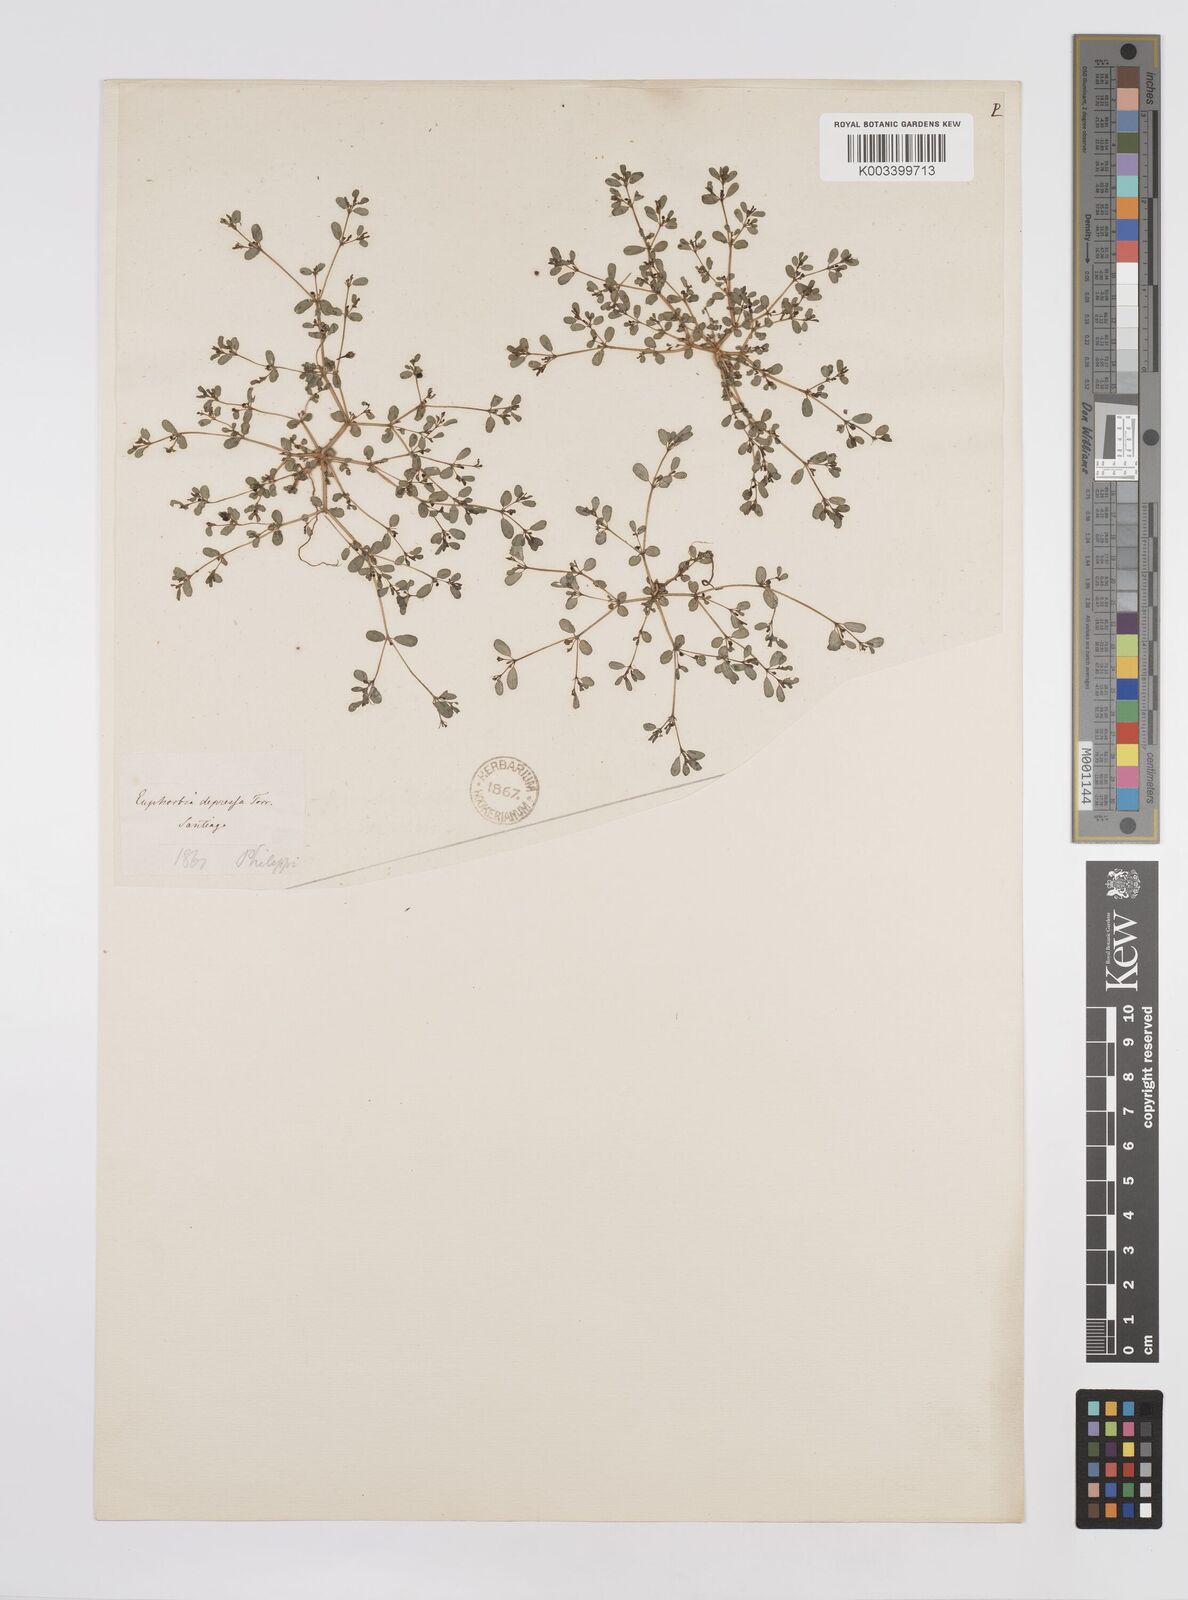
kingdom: Plantae
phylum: Tracheophyta
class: Magnoliopsida
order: Malpighiales
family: Euphorbiaceae
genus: Euphorbia
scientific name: Euphorbia
